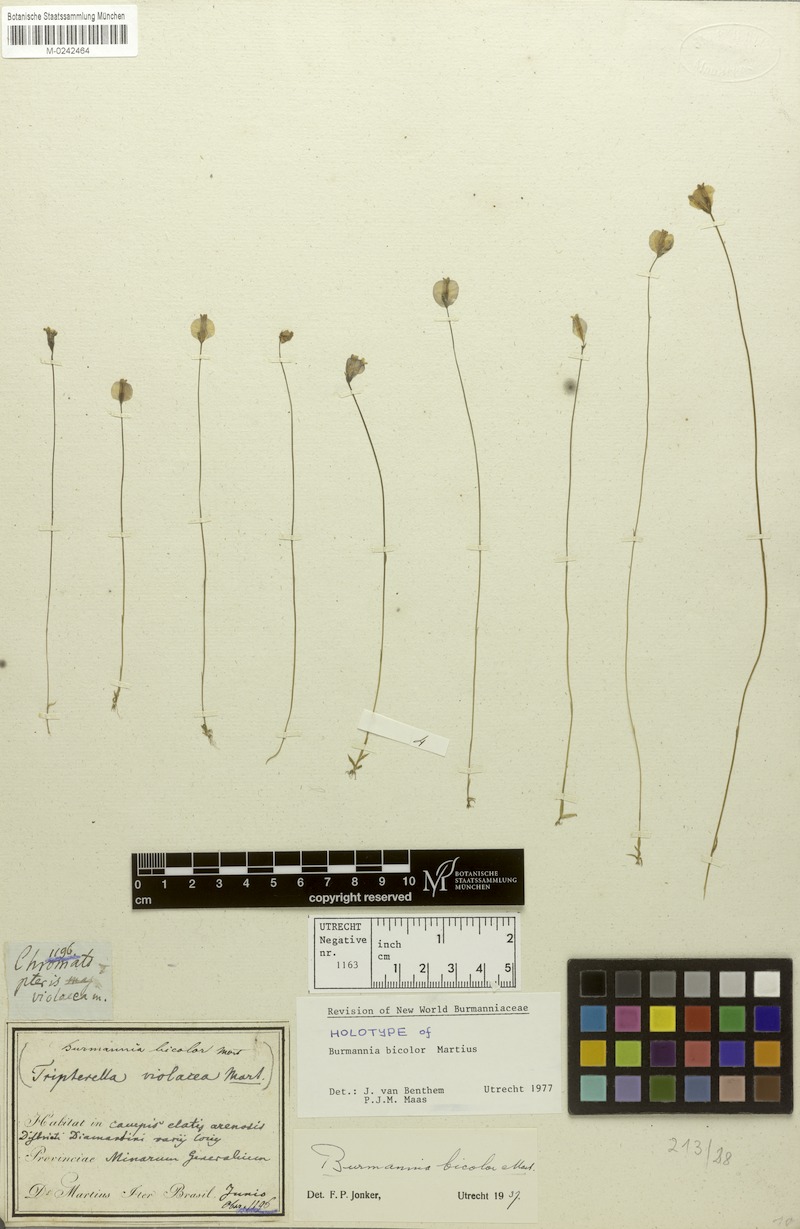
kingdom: Plantae
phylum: Tracheophyta
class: Liliopsida
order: Dioscoreales
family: Burmanniaceae
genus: Burmannia
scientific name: Burmannia bicolor
